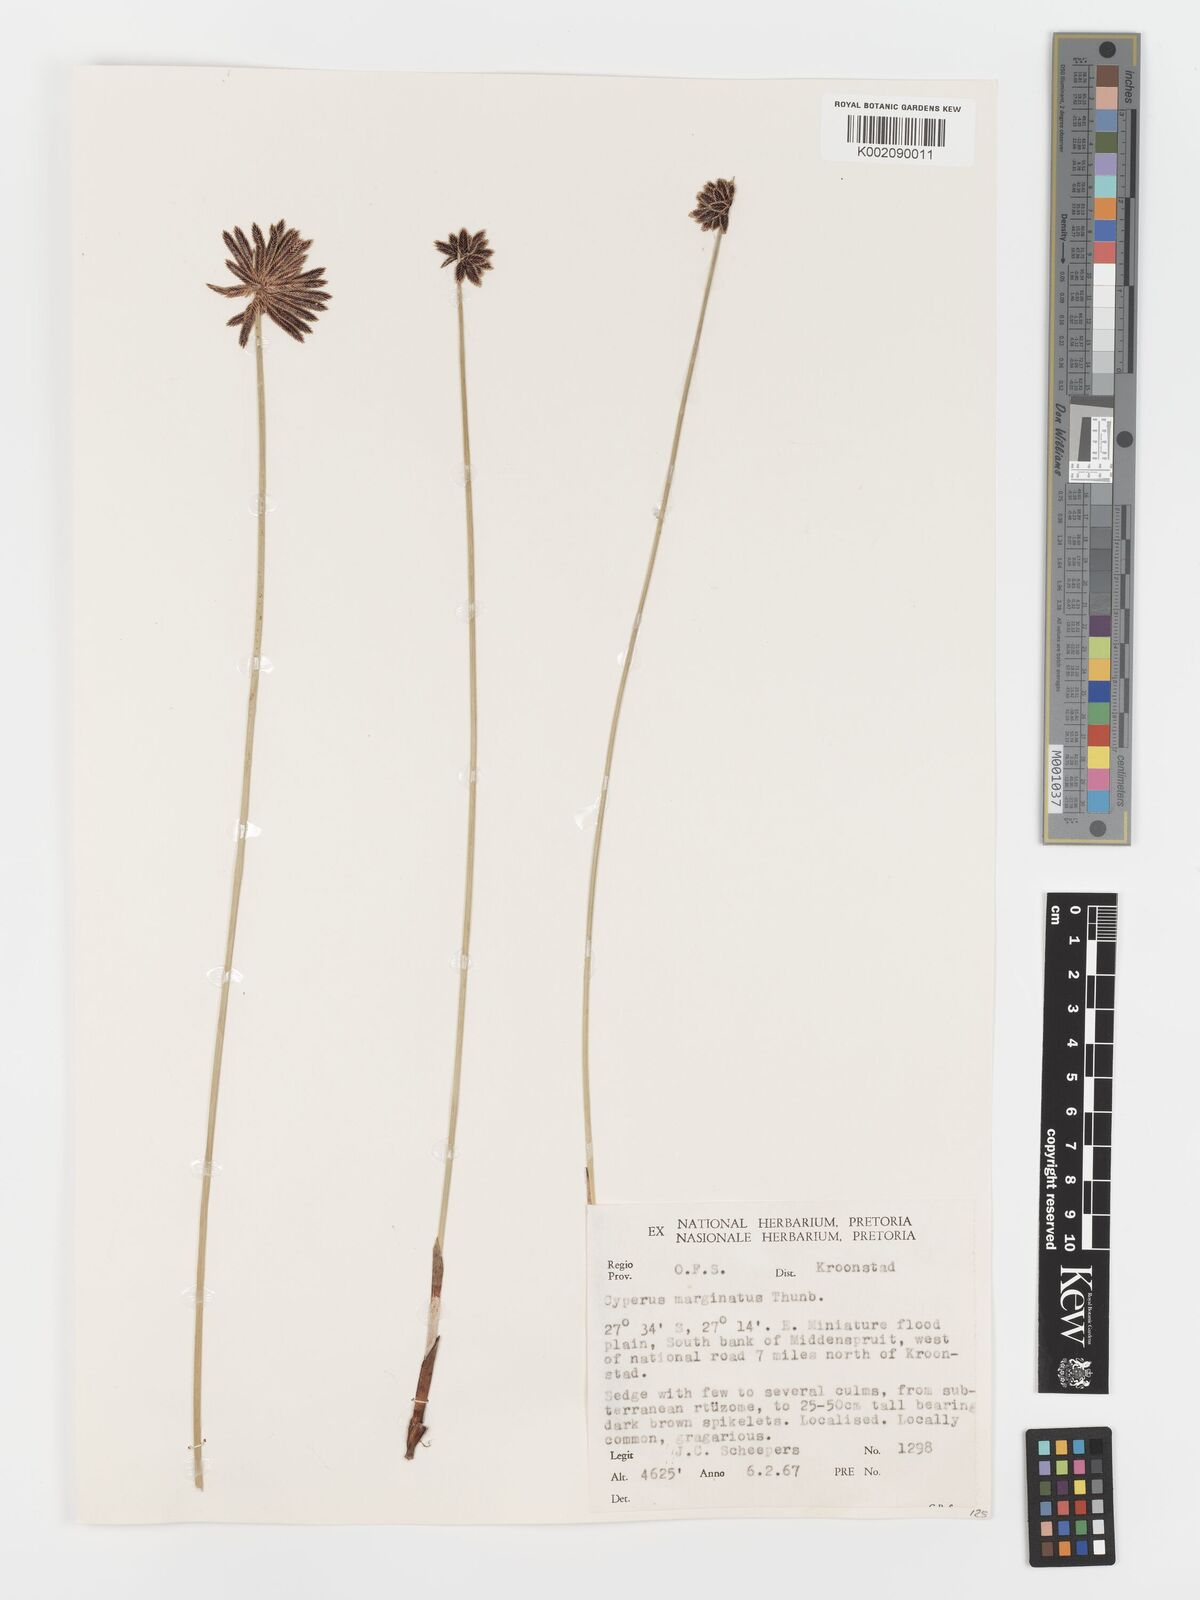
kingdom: Plantae
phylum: Tracheophyta
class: Liliopsida
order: Poales
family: Cyperaceae
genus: Cyperus
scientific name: Cyperus marginatus
